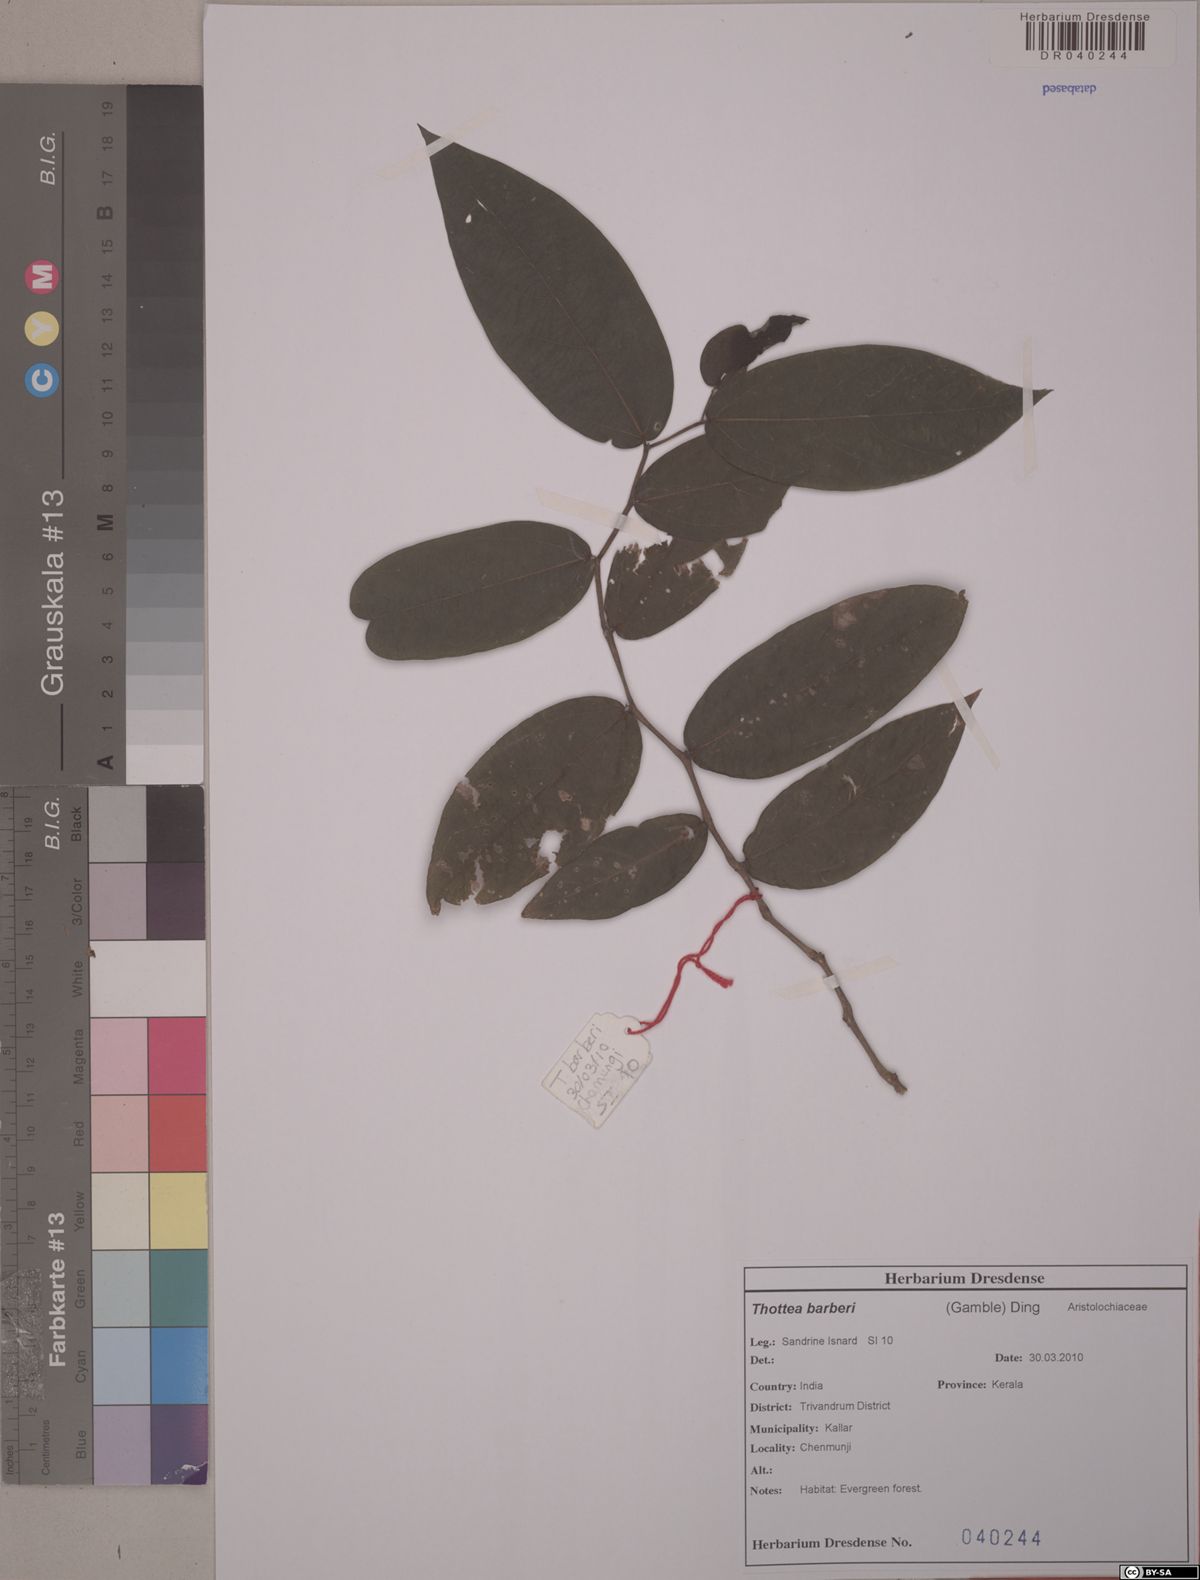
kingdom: Plantae
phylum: Tracheophyta
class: Magnoliopsida
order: Piperales
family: Aristolochiaceae
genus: Thottea
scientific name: Thottea barberi
